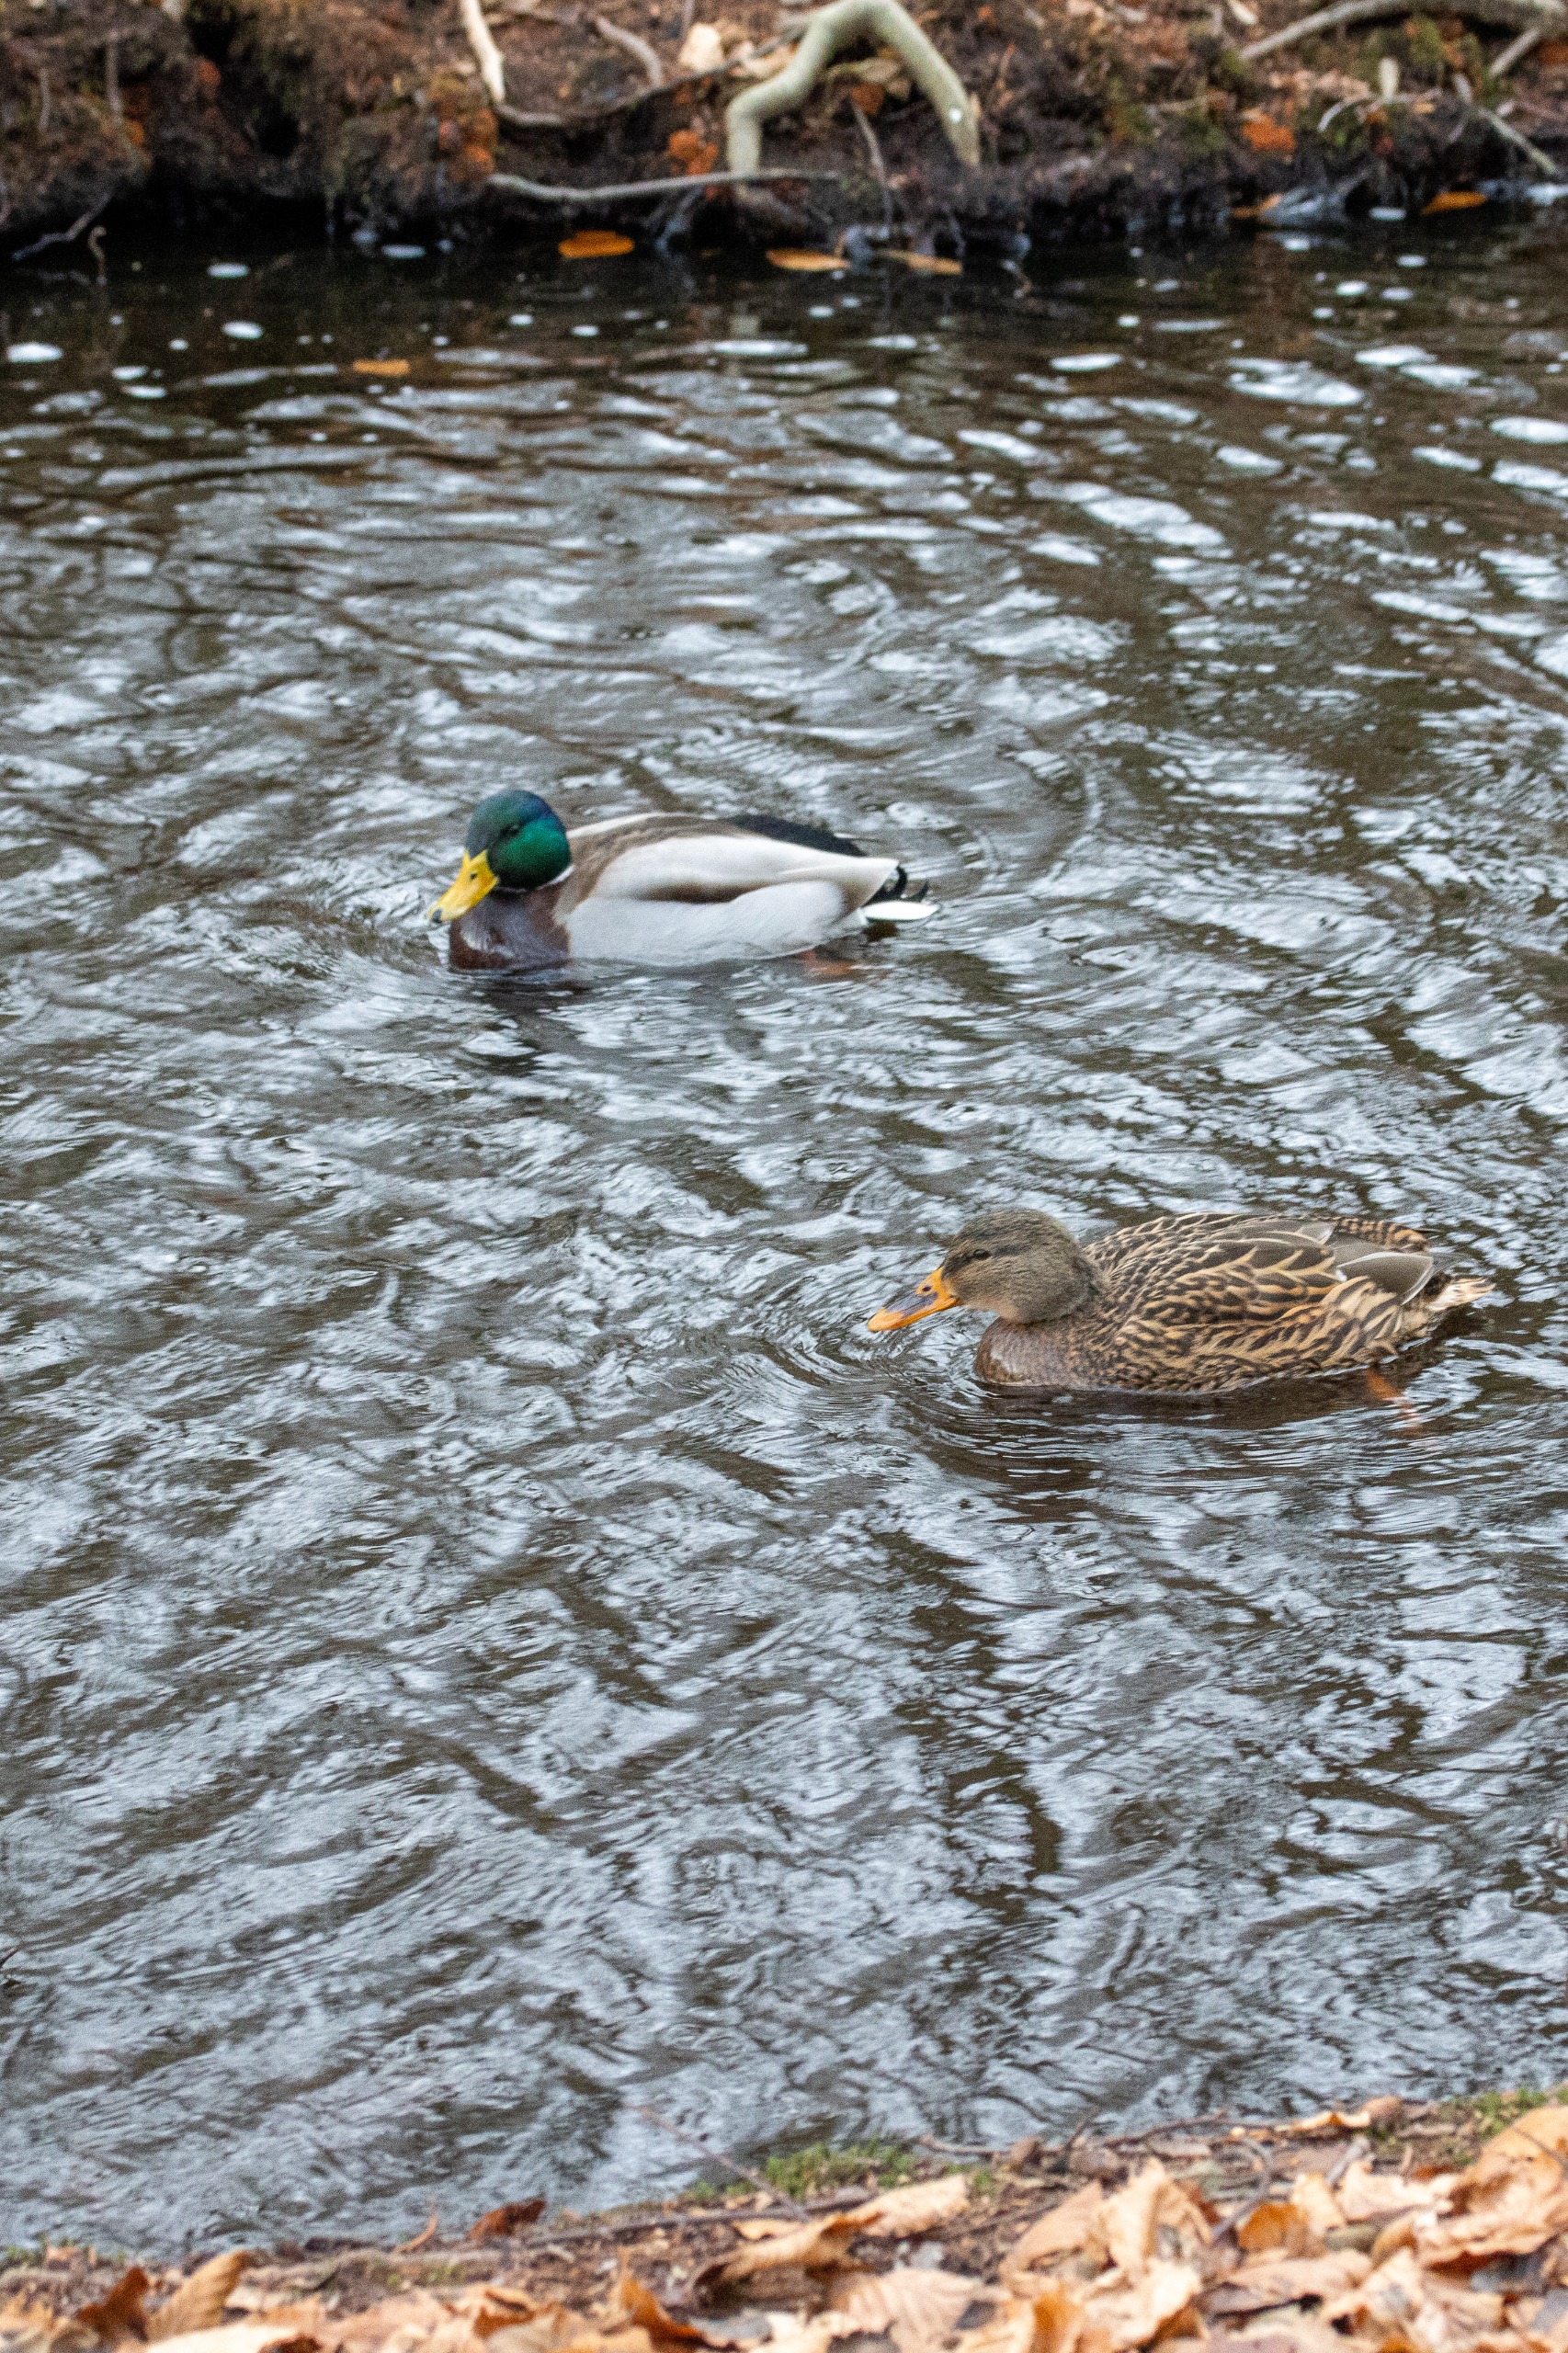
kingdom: Animalia
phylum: Chordata
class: Aves
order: Anseriformes
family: Anatidae
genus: Anas
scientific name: Anas platyrhynchos
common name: Gråand
